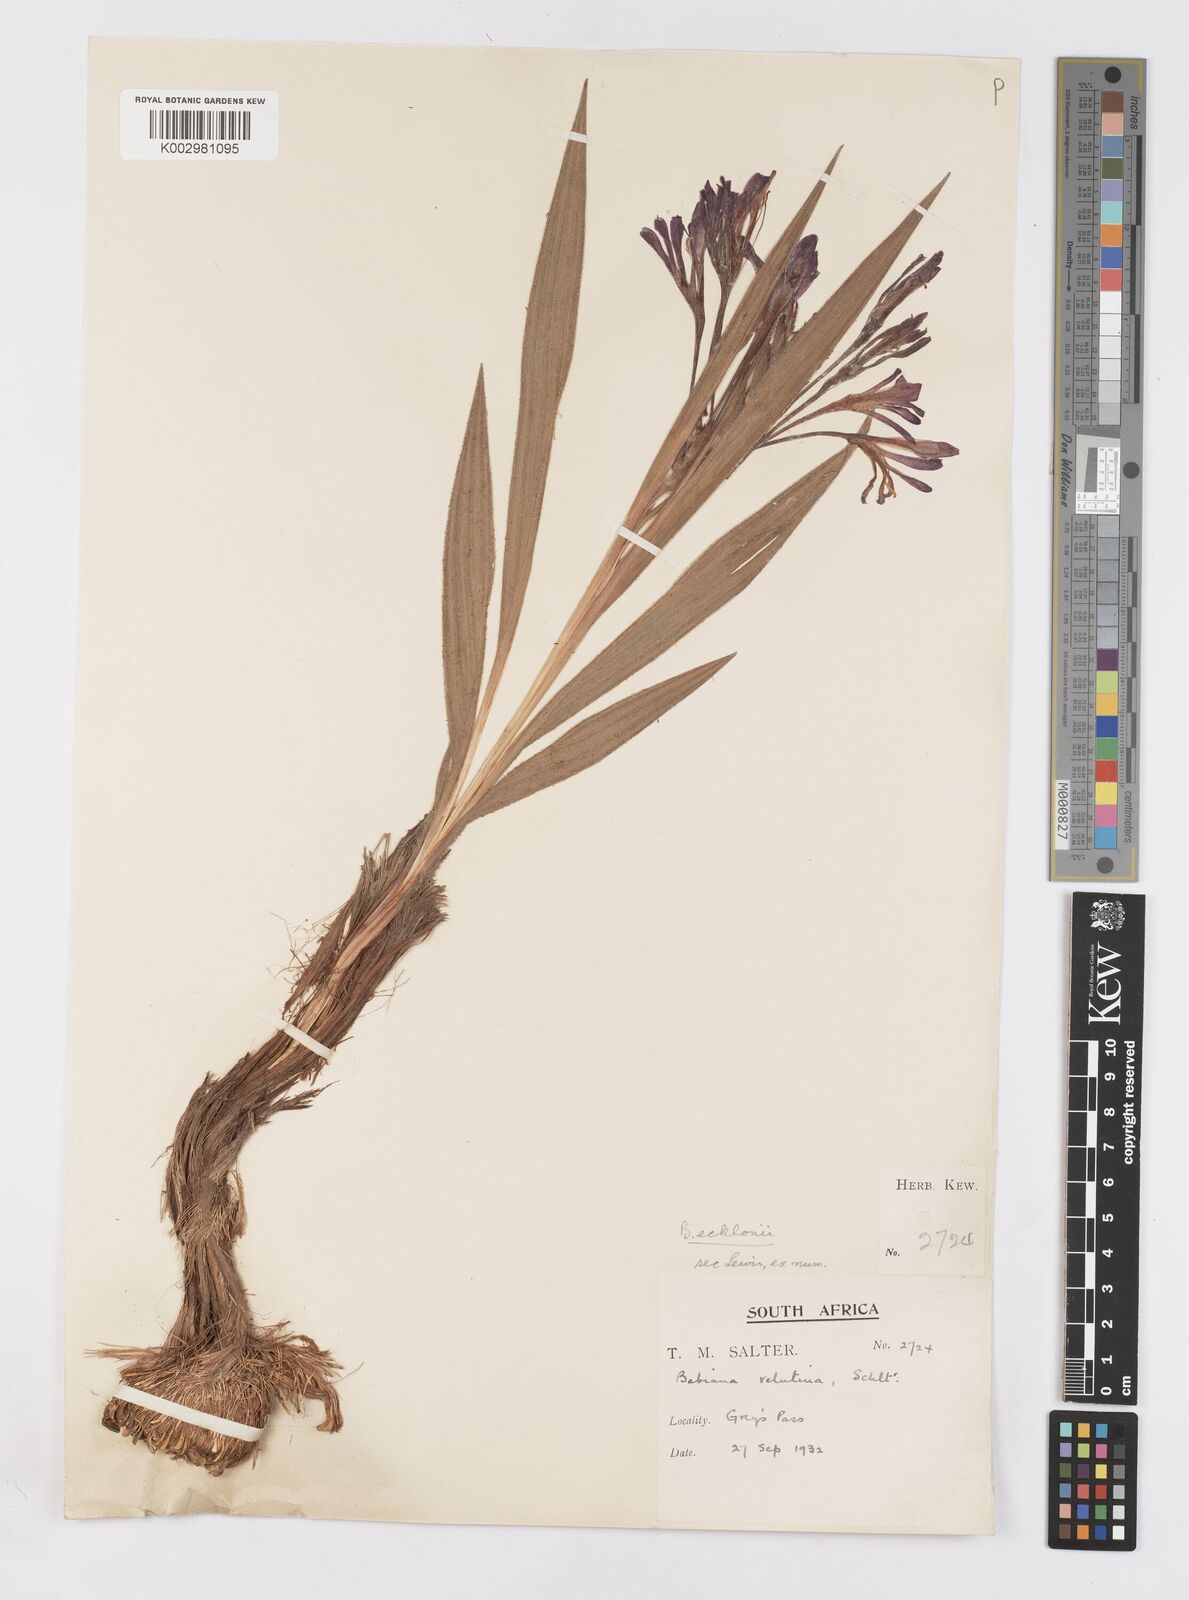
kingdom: Plantae
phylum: Tracheophyta
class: Liliopsida
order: Asparagales
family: Iridaceae
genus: Babiana
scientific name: Babiana ecklonii
